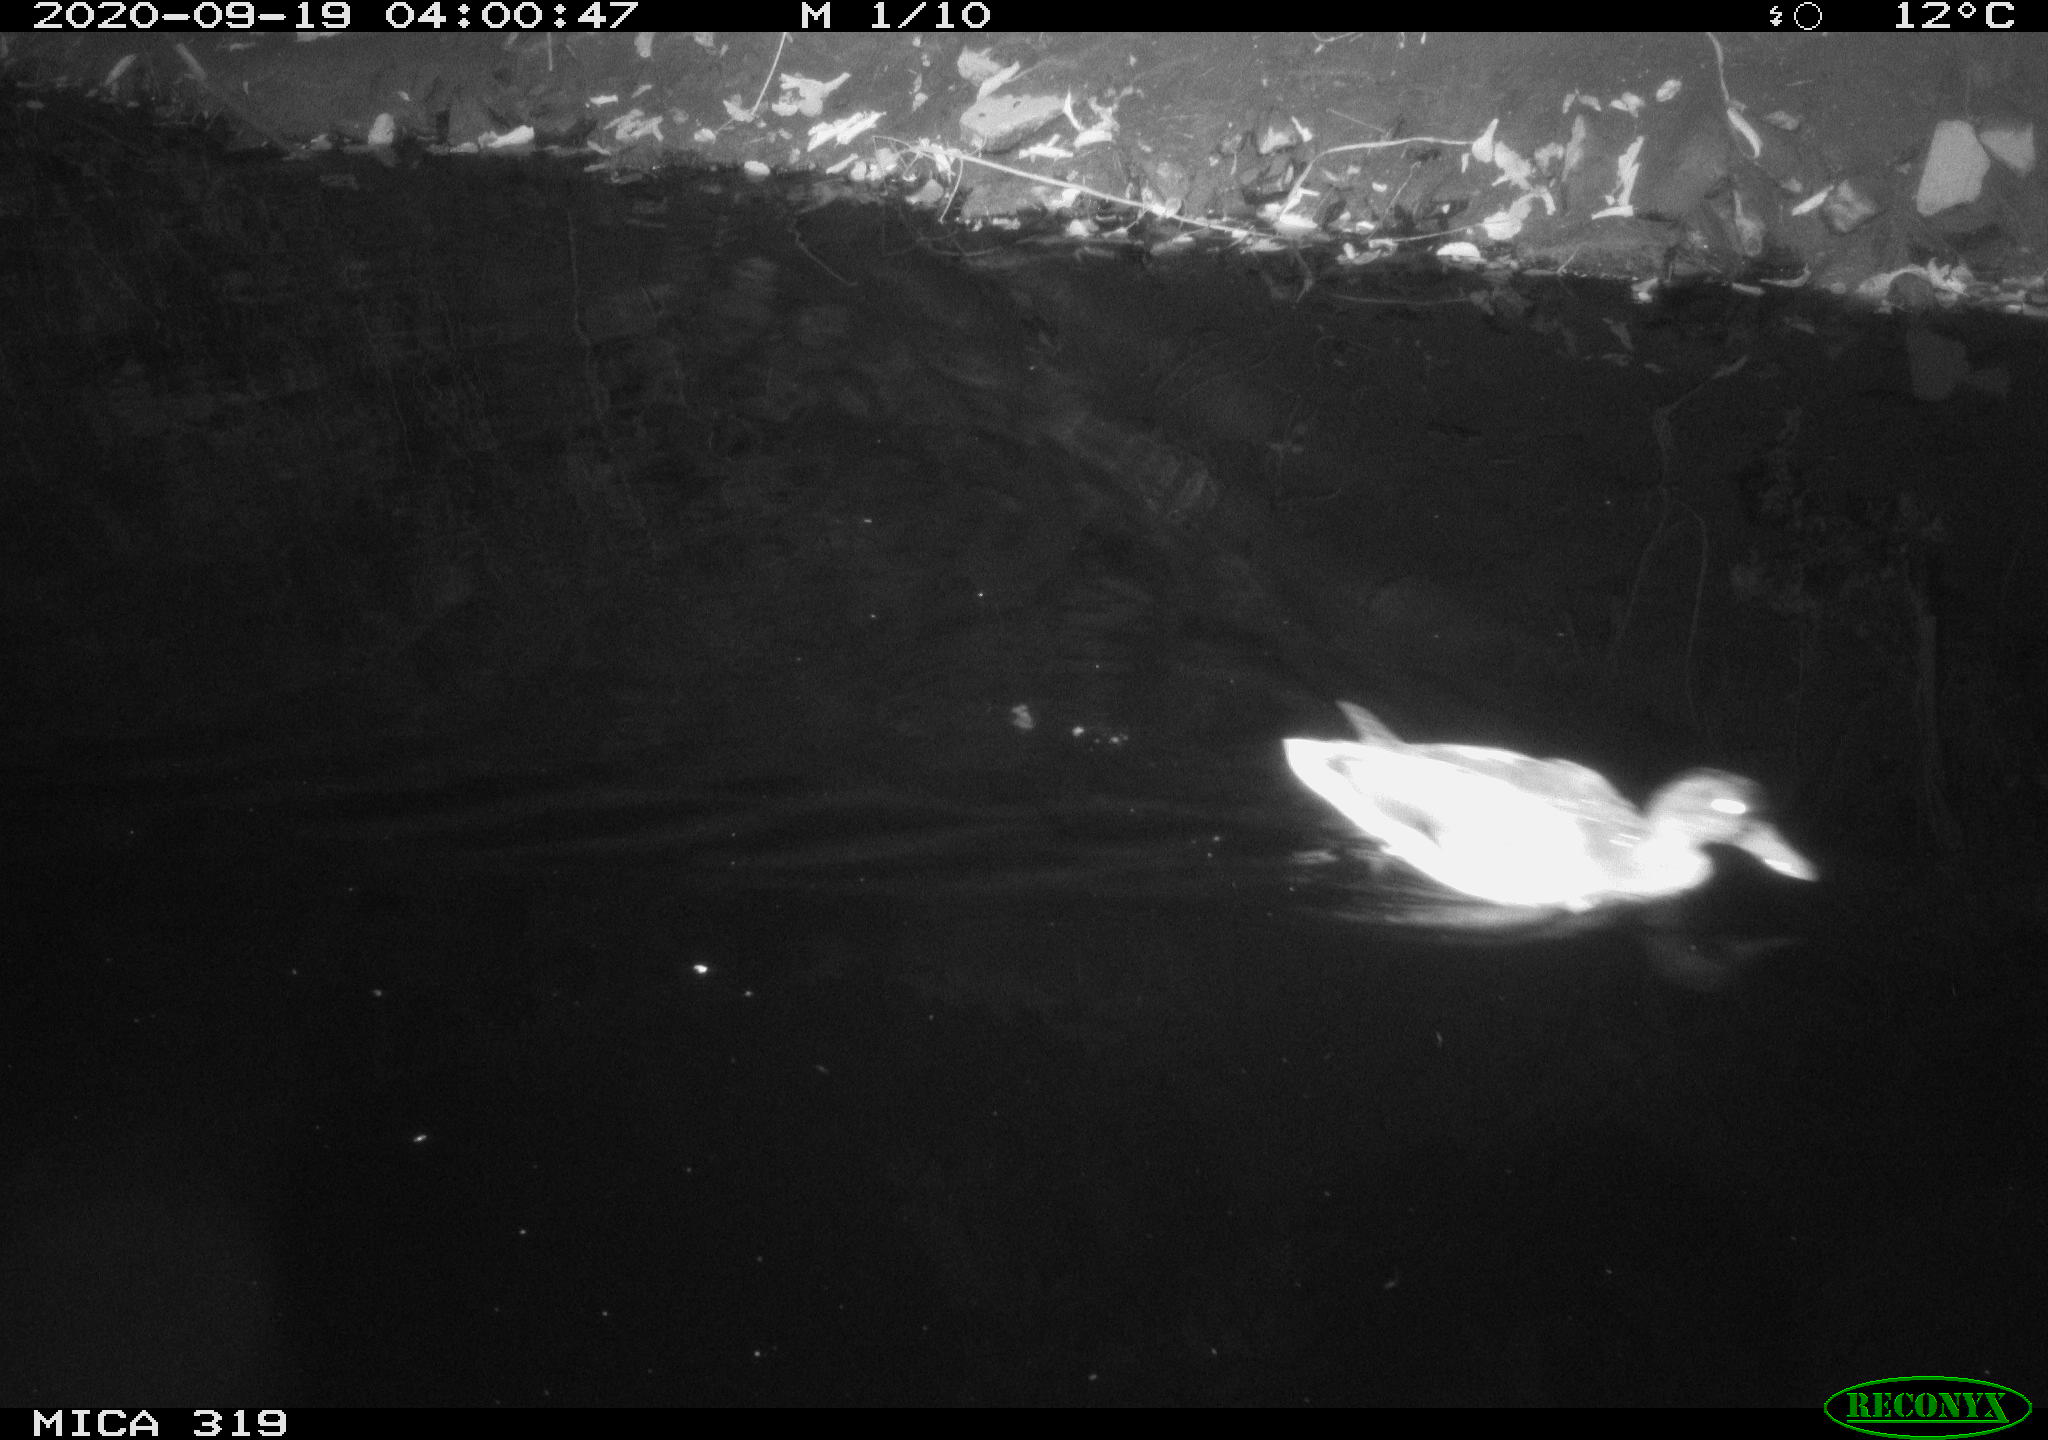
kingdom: Animalia
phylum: Chordata
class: Aves
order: Anseriformes
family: Anatidae
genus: Anas
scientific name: Anas platyrhynchos
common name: Mallard
